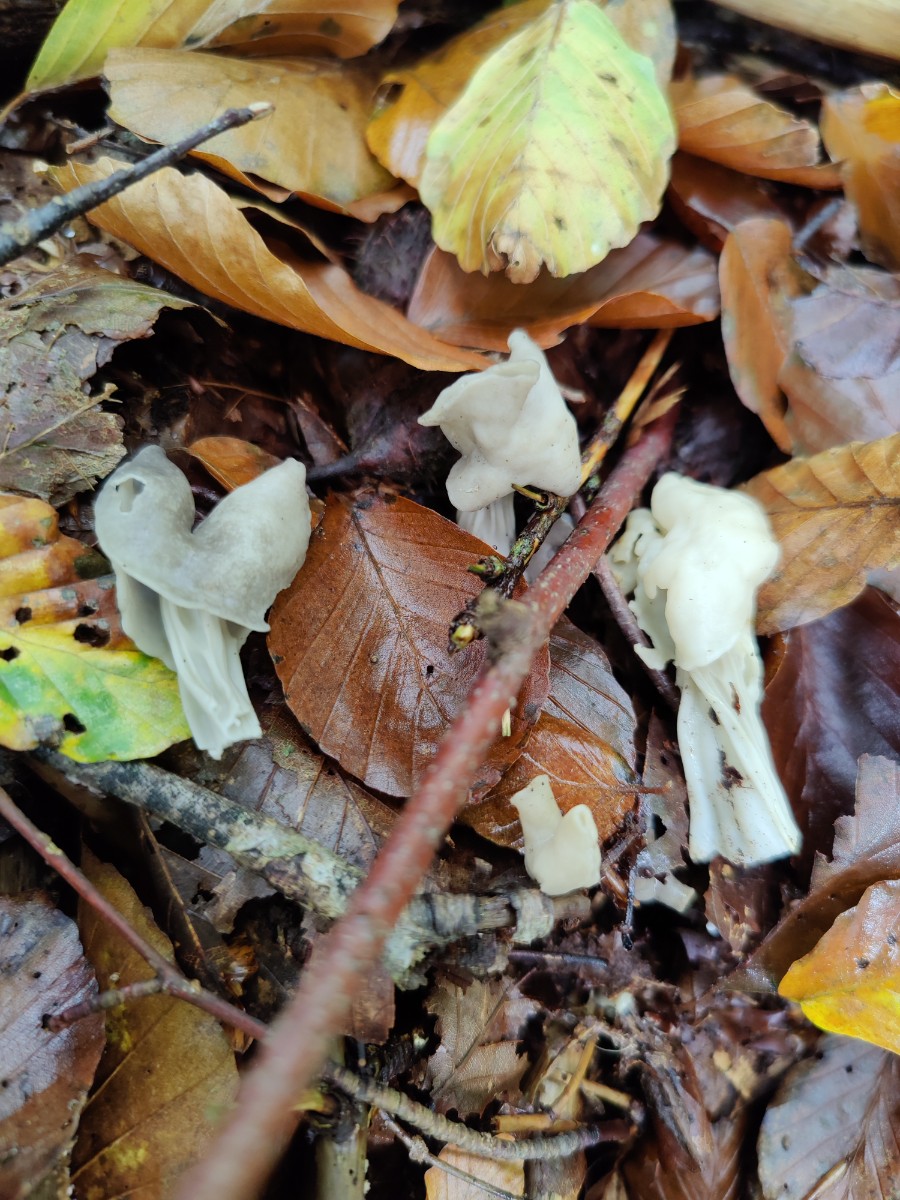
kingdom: Fungi
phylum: Ascomycota
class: Pezizomycetes
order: Pezizales
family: Helvellaceae
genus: Helvella
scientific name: Helvella crispa
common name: kruset foldhat
